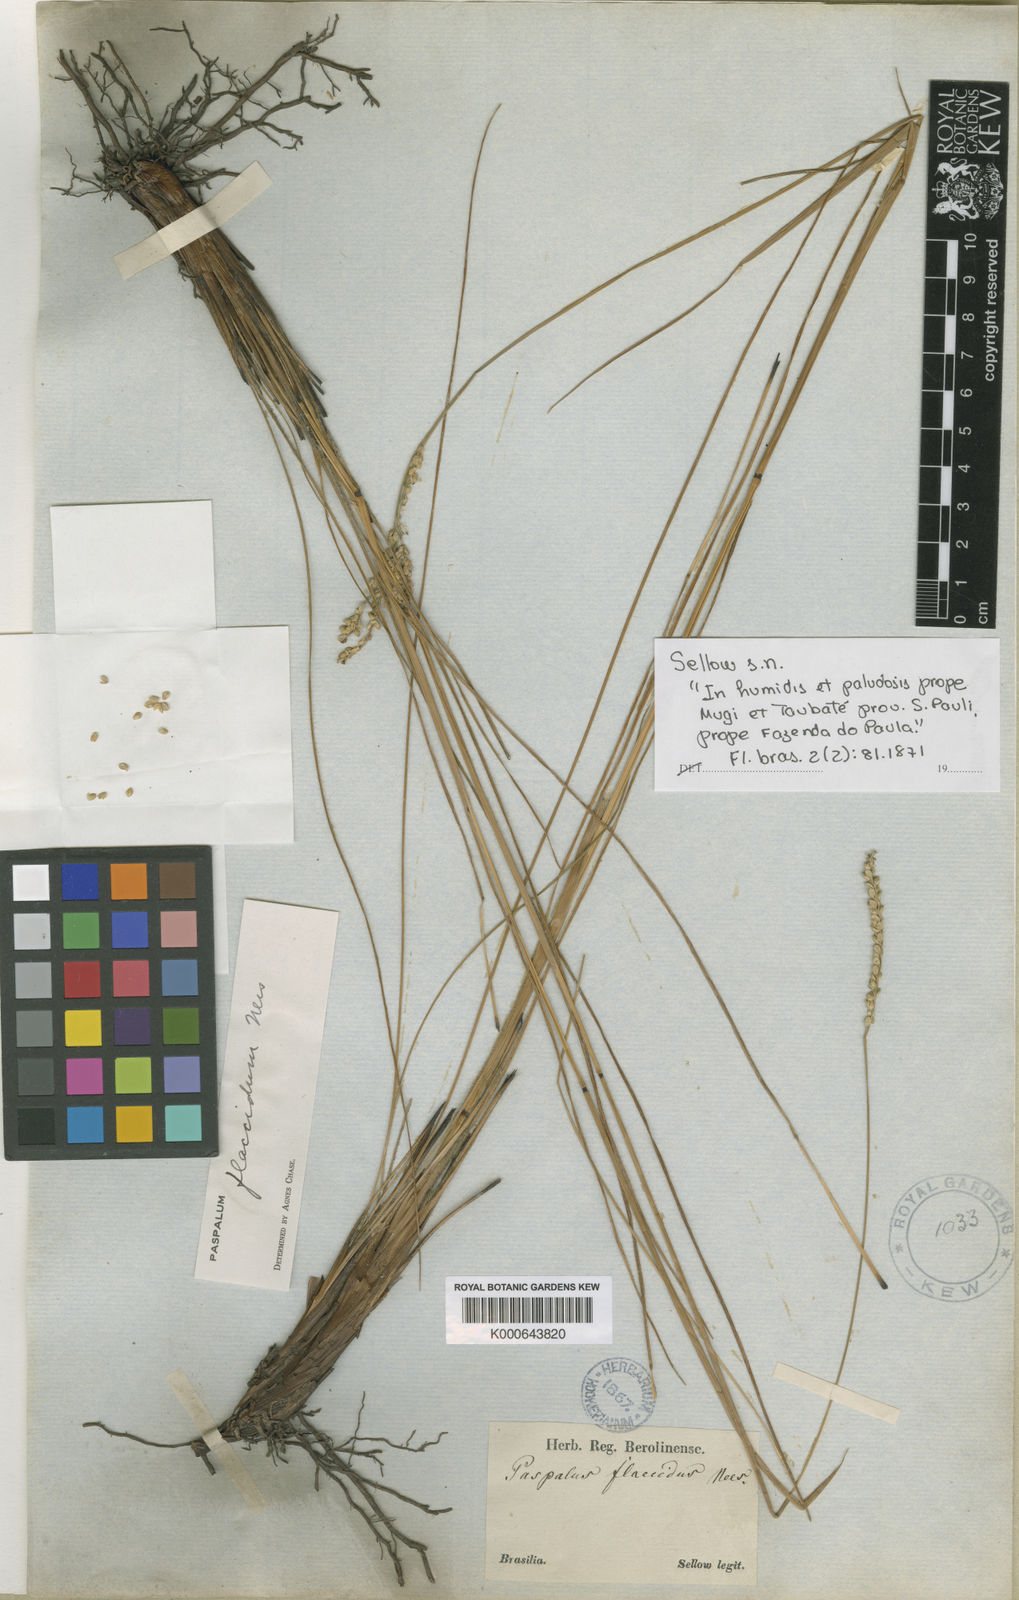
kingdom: Plantae
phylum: Tracheophyta
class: Liliopsida
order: Poales
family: Poaceae
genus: Paspalum
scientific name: Paspalum flaccidum
